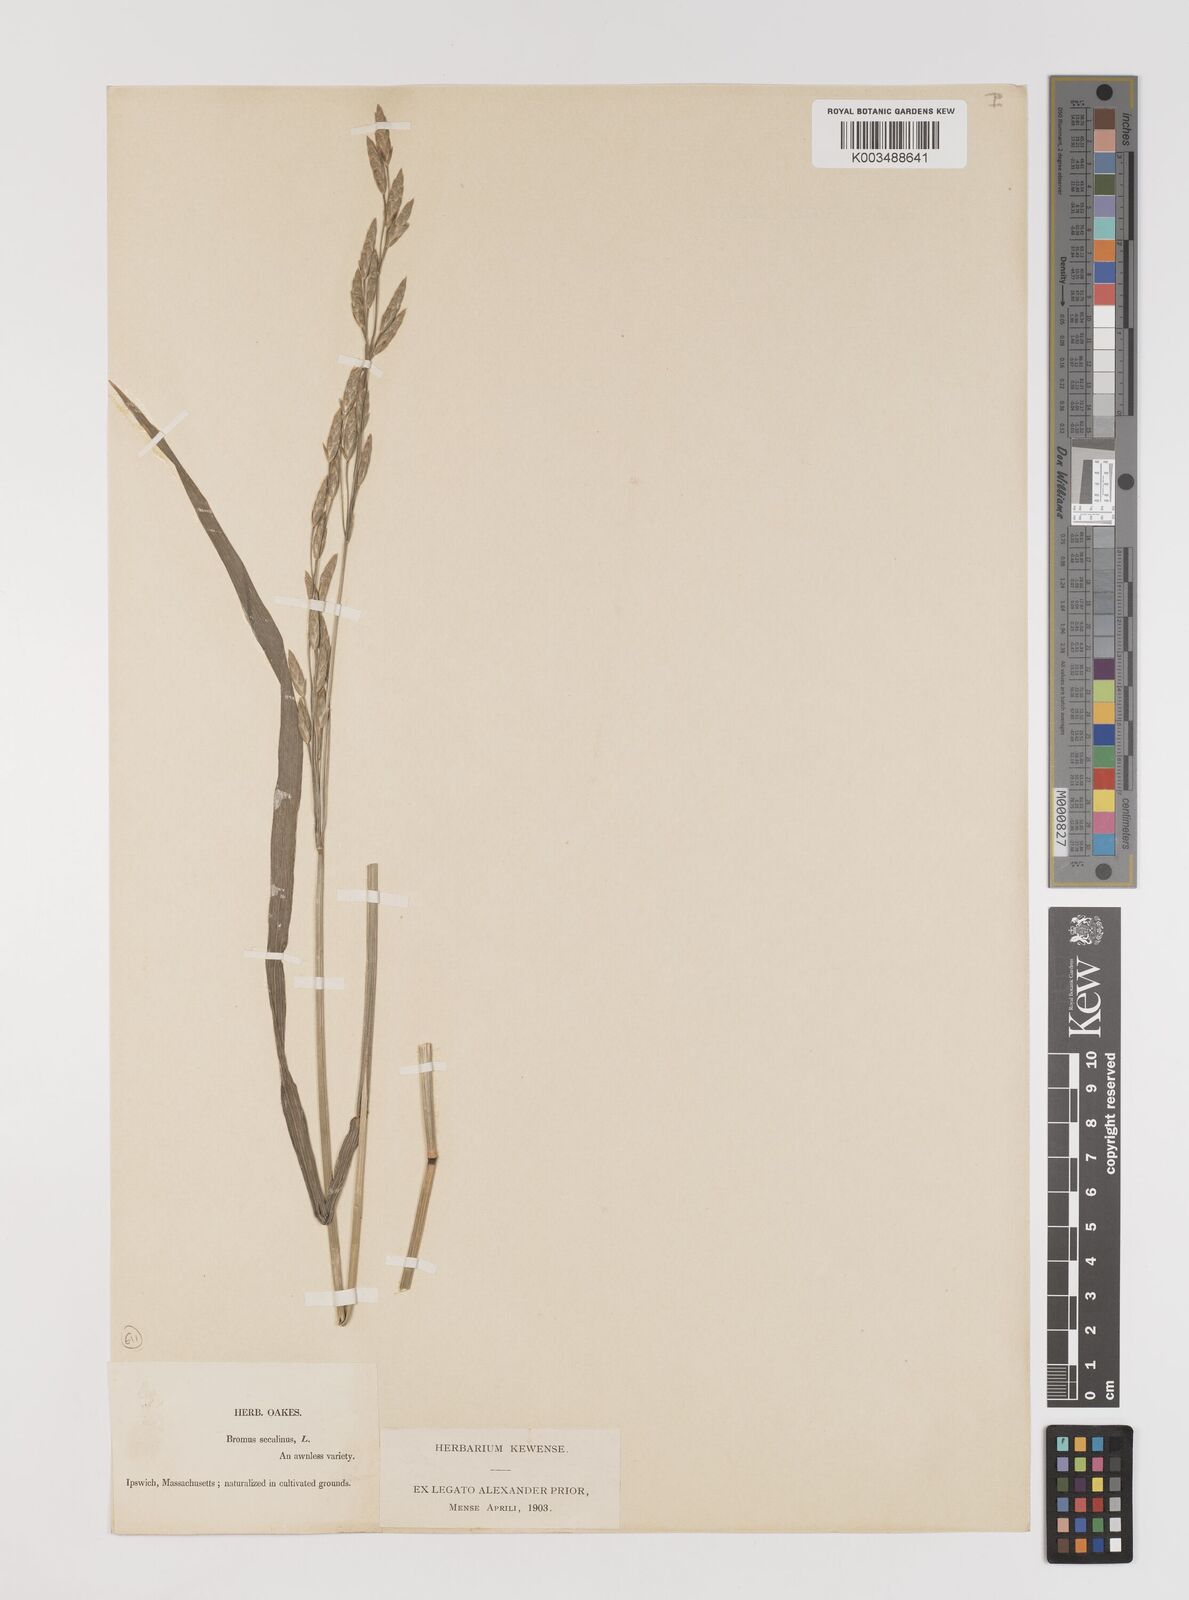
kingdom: Plantae
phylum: Tracheophyta
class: Liliopsida
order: Poales
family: Poaceae
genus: Bromus
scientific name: Bromus secalinus
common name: Rye brome
